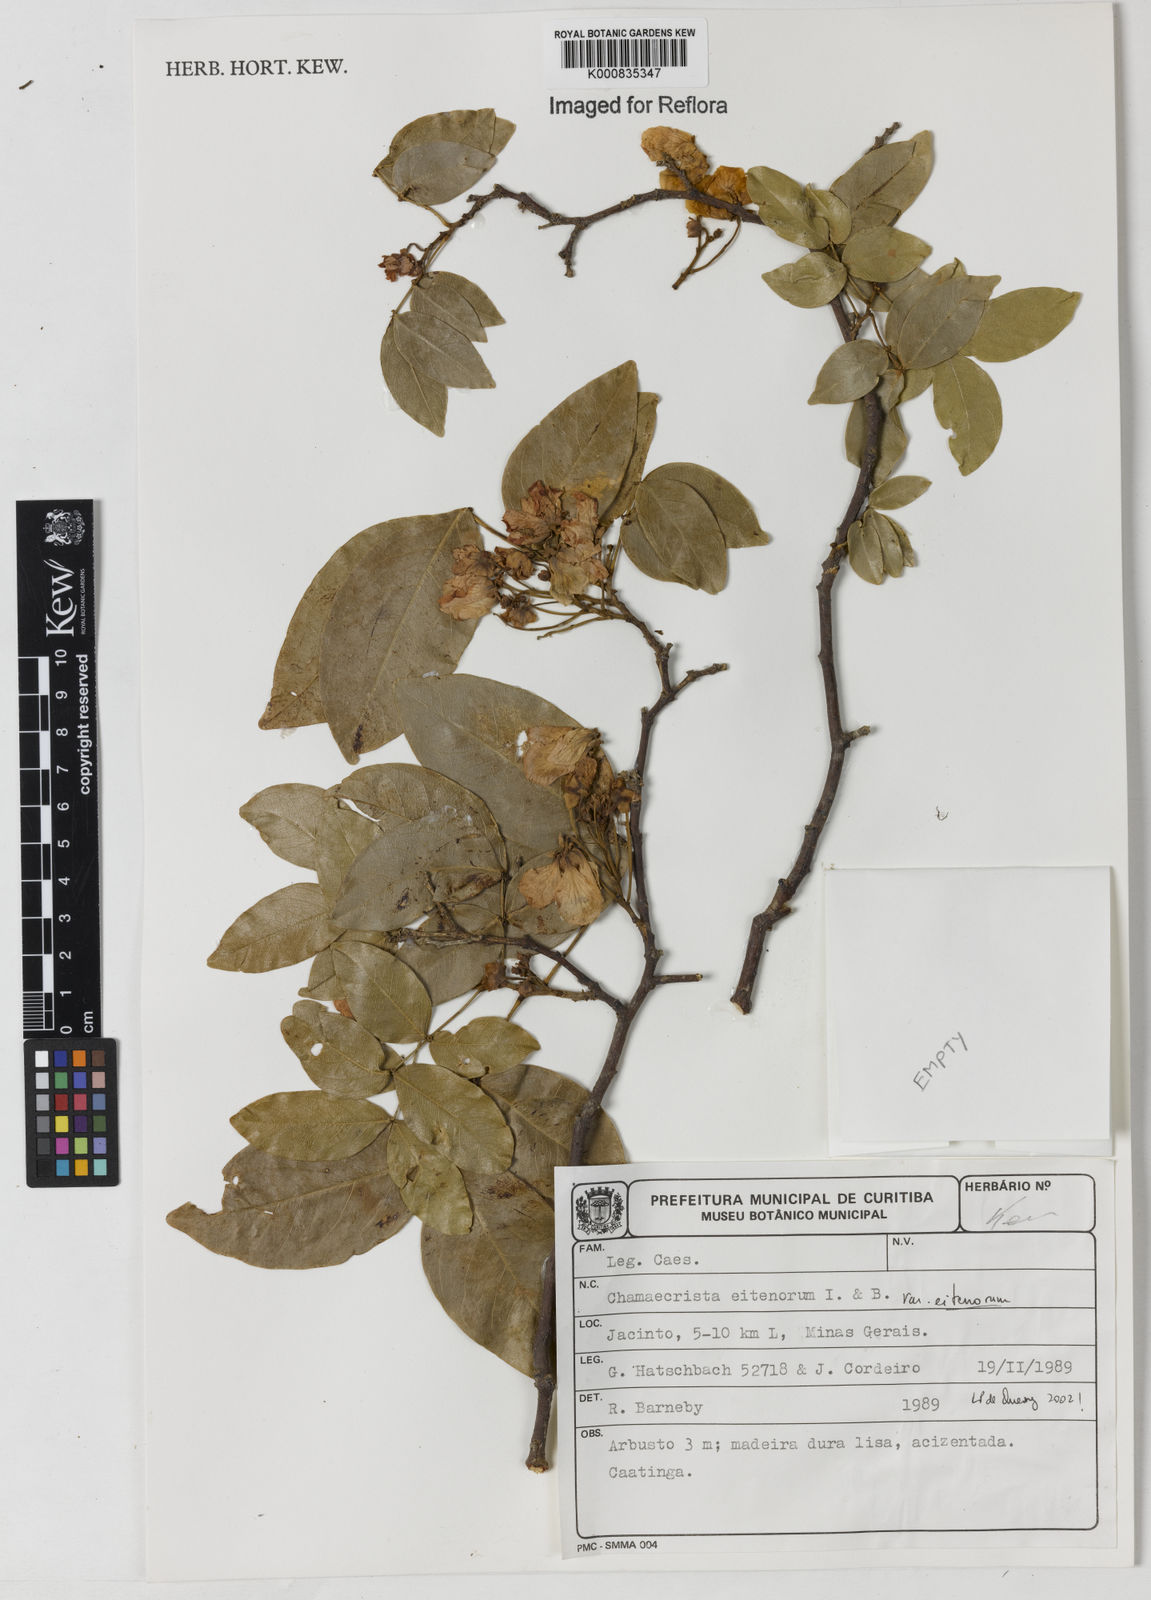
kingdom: Plantae
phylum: Tracheophyta
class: Magnoliopsida
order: Fabales
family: Fabaceae
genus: Chamaecrista
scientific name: Chamaecrista eitenorum
